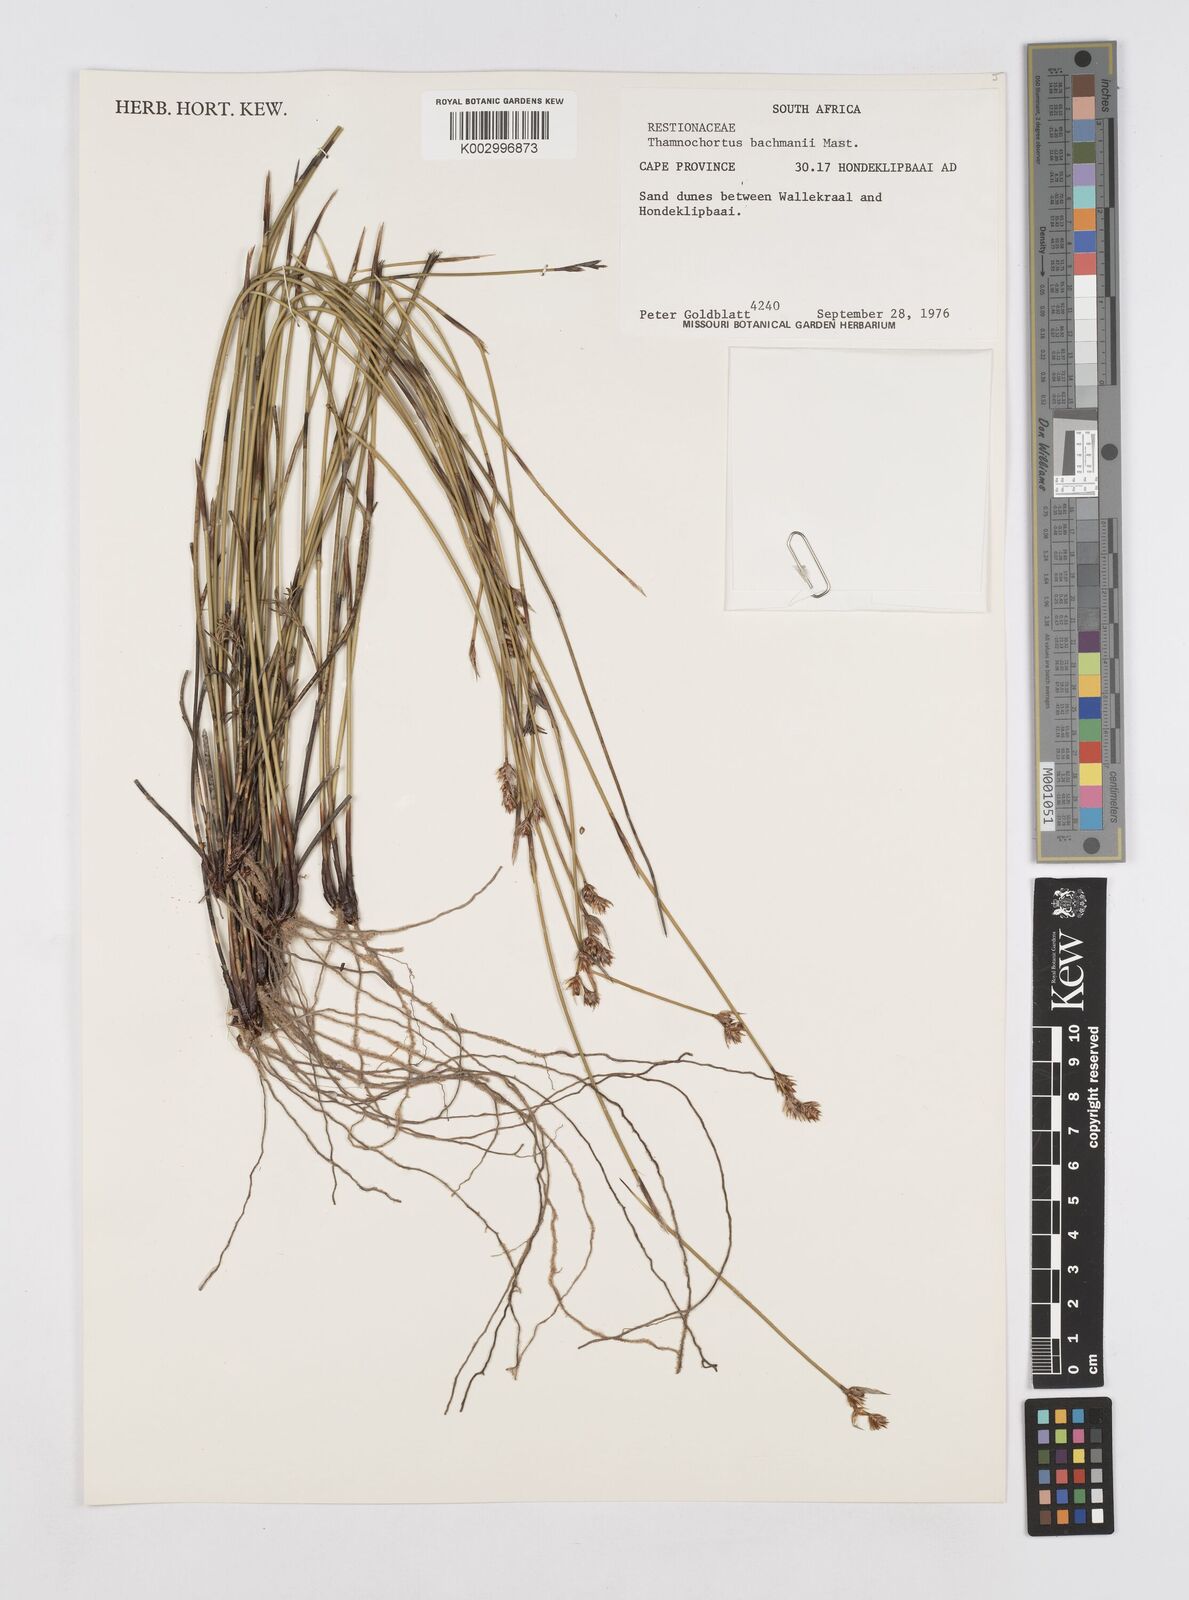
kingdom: Plantae
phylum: Tracheophyta
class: Liliopsida
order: Poales
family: Restionaceae
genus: Thamnochortus
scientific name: Thamnochortus bachmannii
